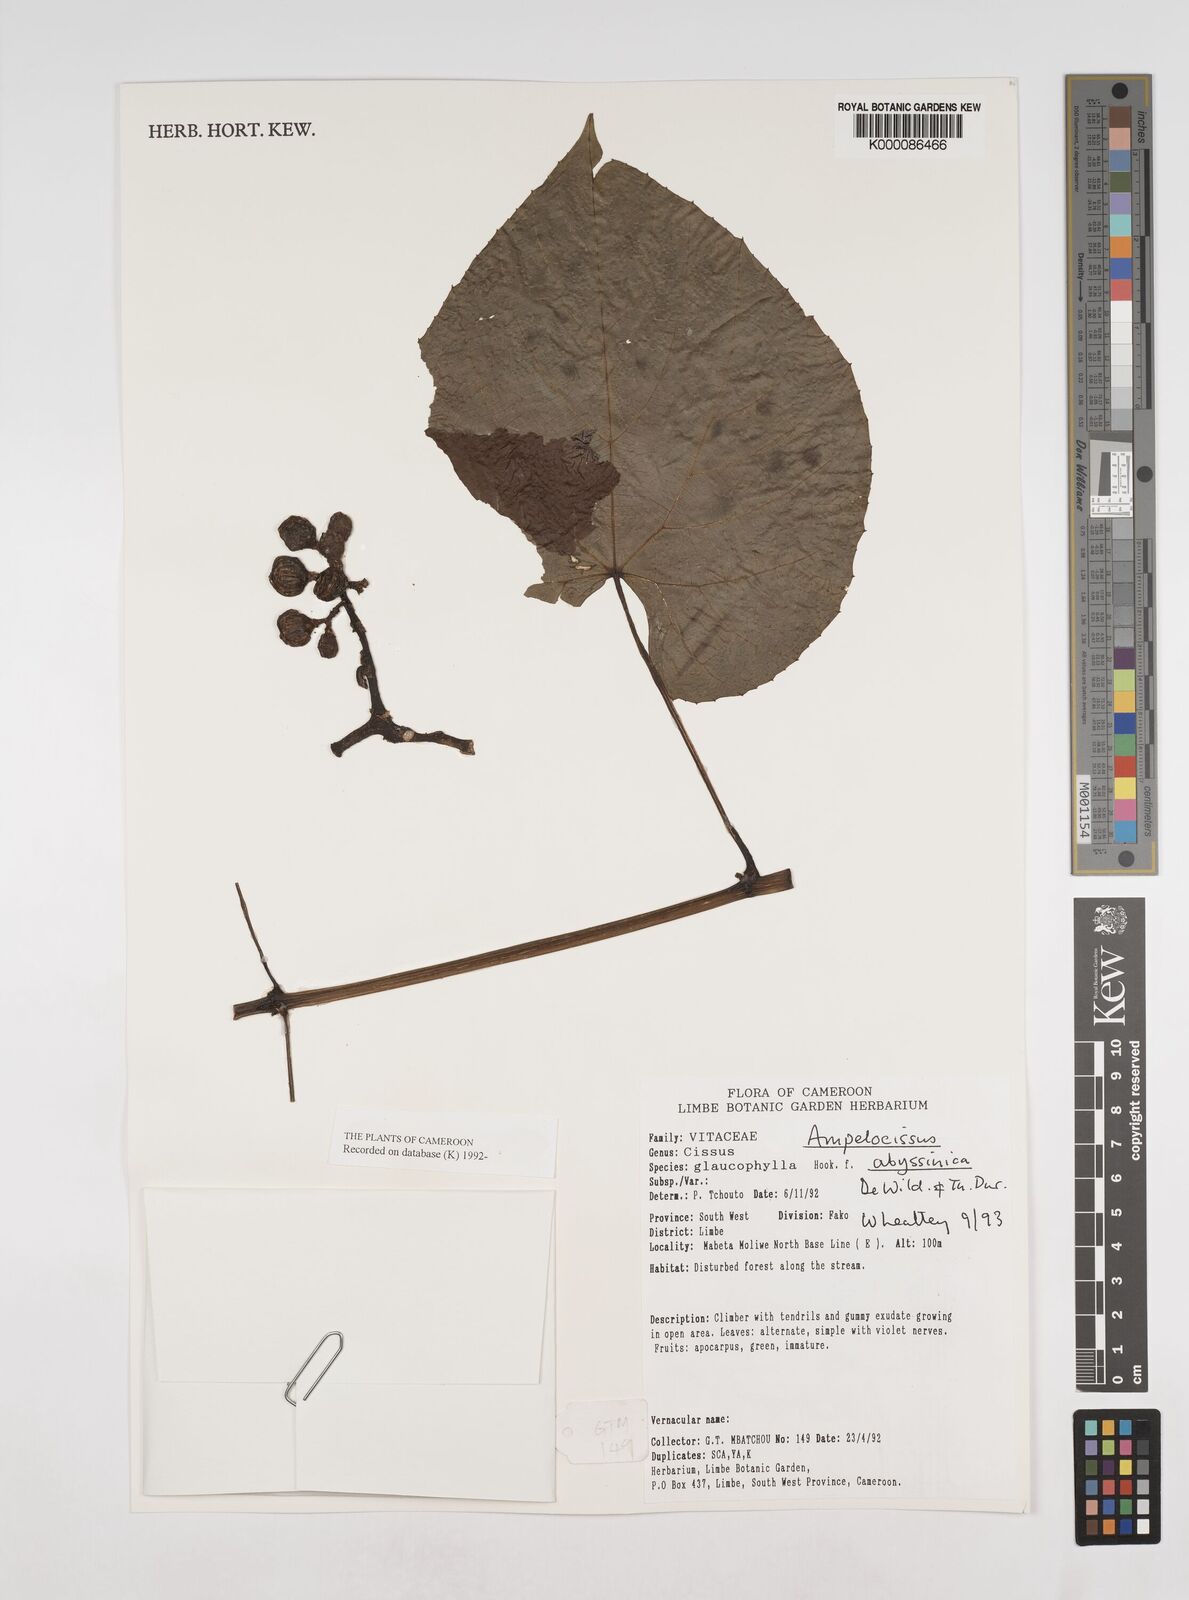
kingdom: Plantae
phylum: Tracheophyta
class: Magnoliopsida
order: Vitales
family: Vitaceae
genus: Ampelocissus
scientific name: Ampelocissus abyssinica
